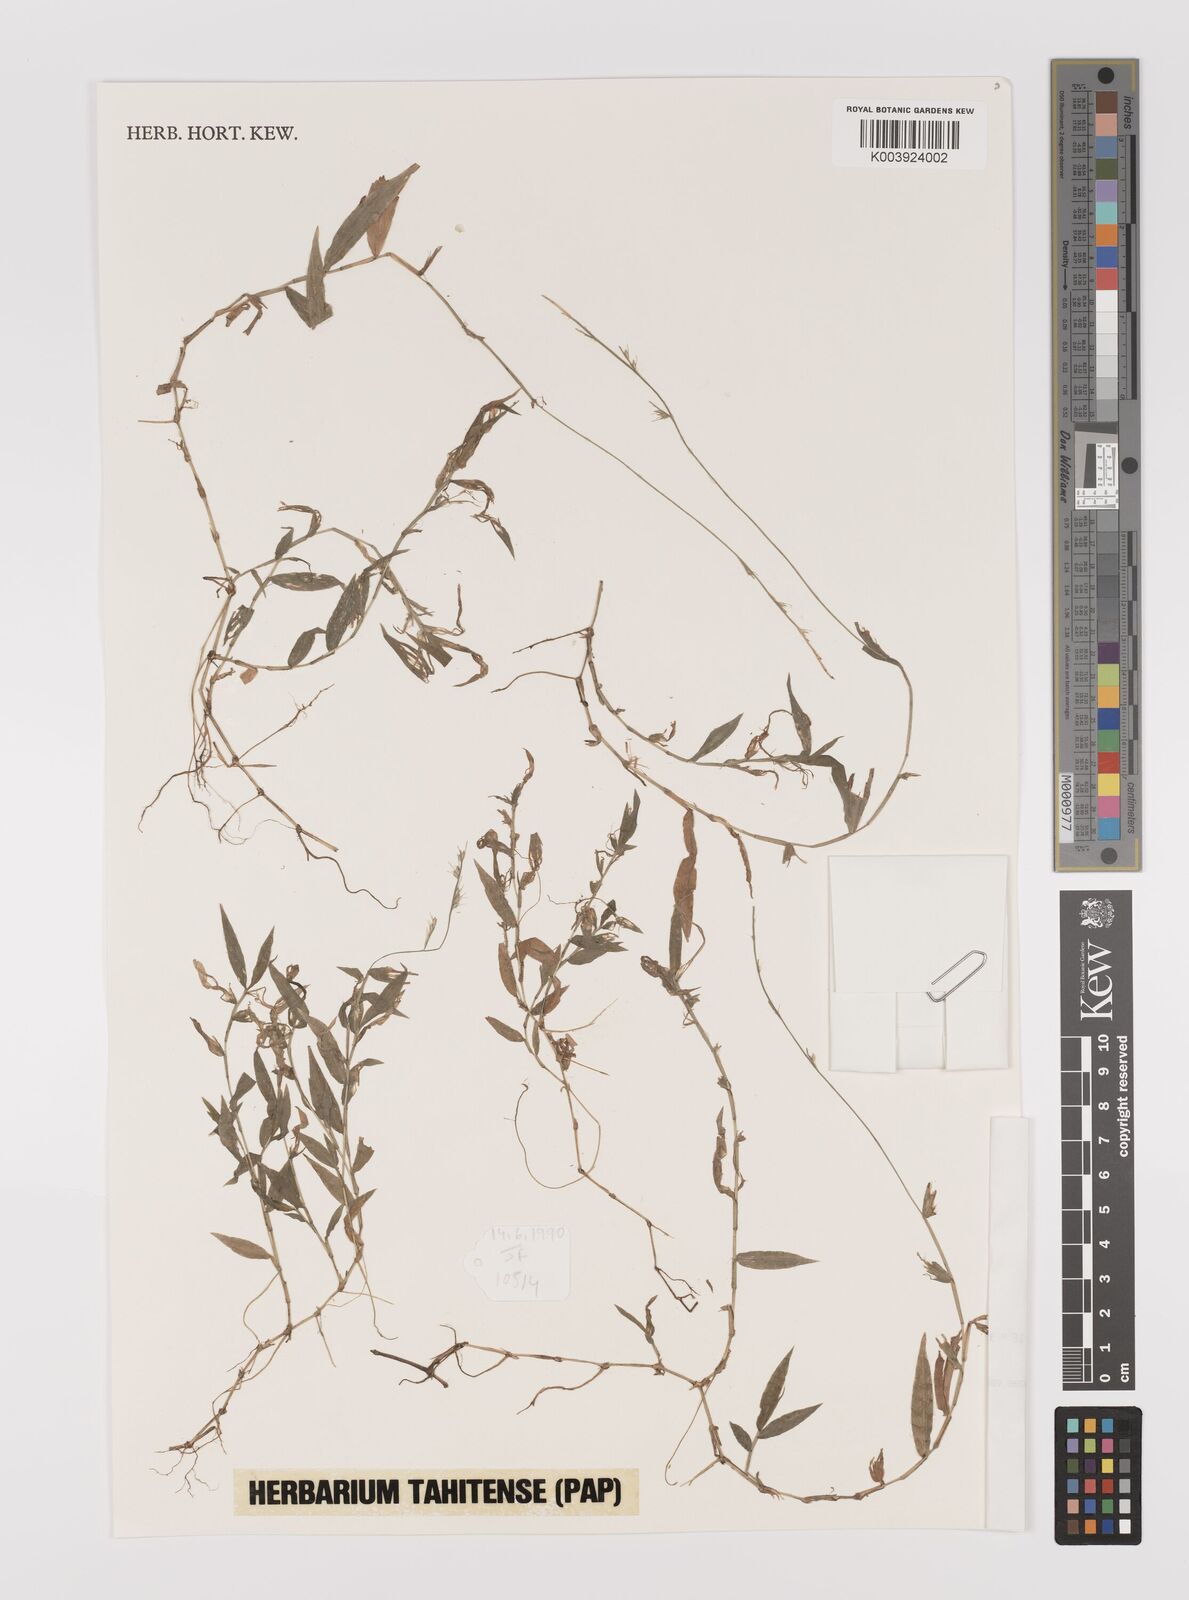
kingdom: Plantae
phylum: Tracheophyta
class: Liliopsida
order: Poales
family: Poaceae
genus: Oplismenus
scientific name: Oplismenus compositus
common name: Running mountain grass
